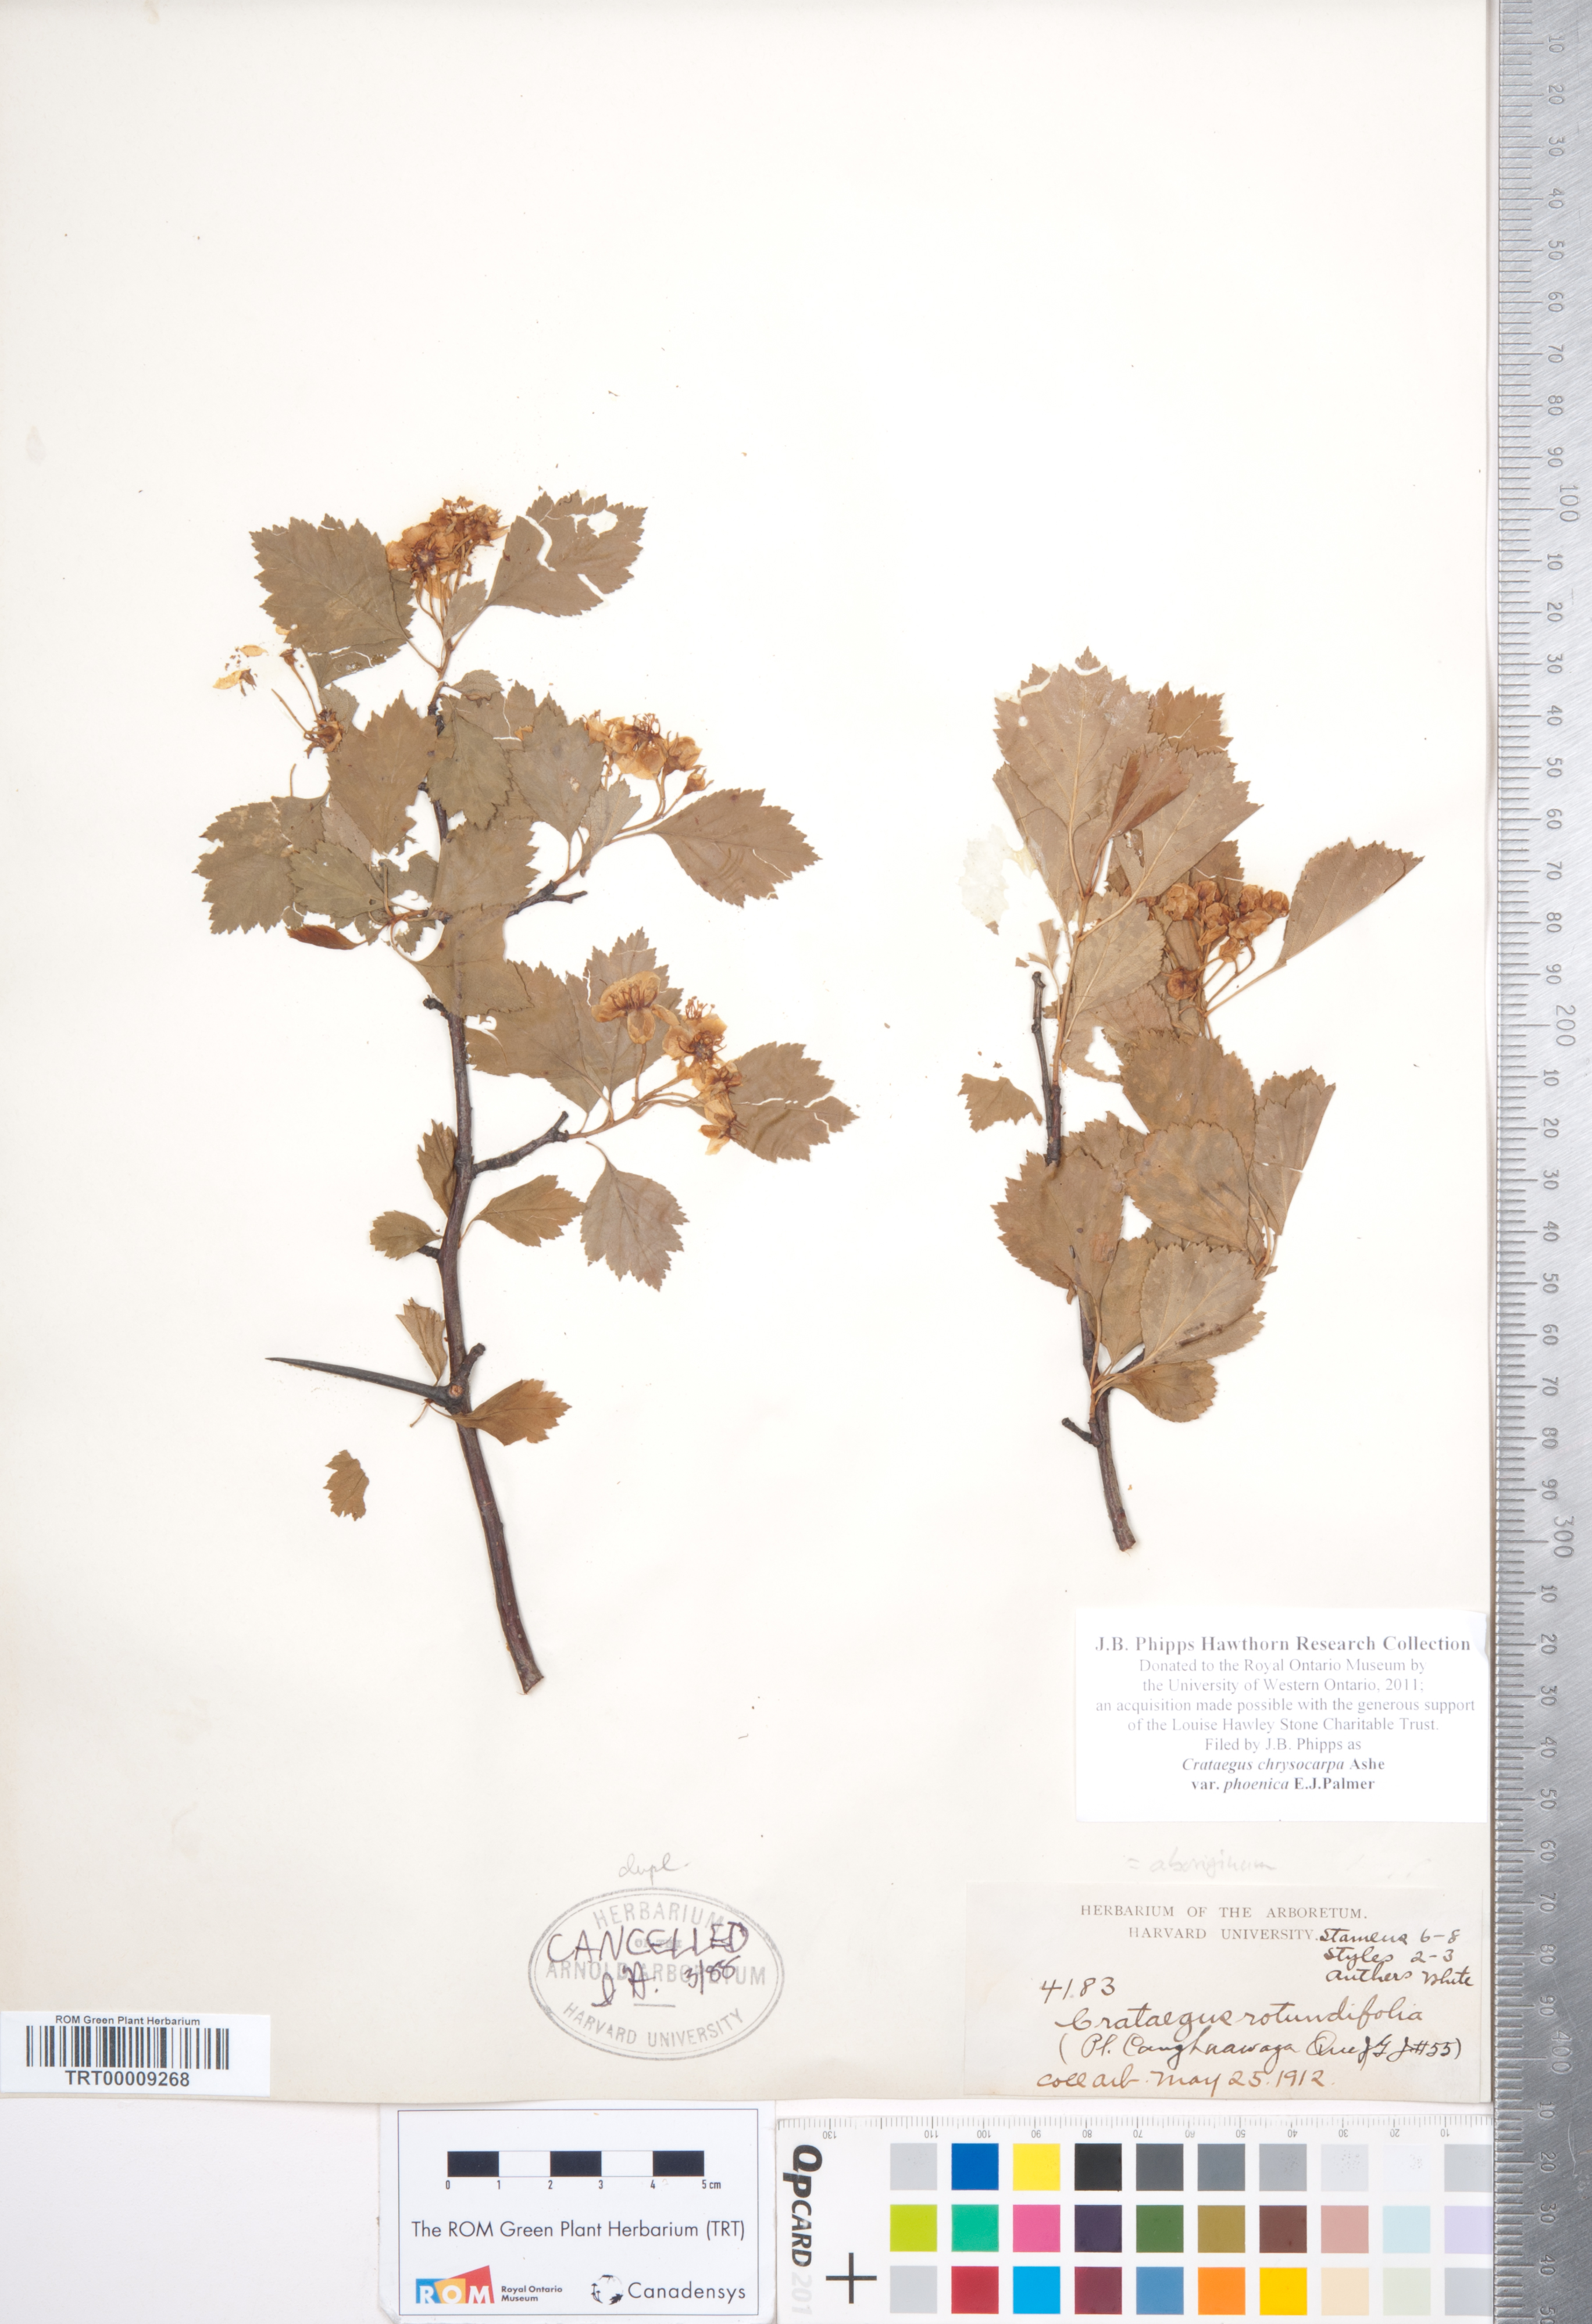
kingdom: Plantae
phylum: Tracheophyta
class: Magnoliopsida
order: Rosales
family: Rosaceae
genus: Crataegus
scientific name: Crataegus chrysocarpa
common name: Fire-berry hawthorn
